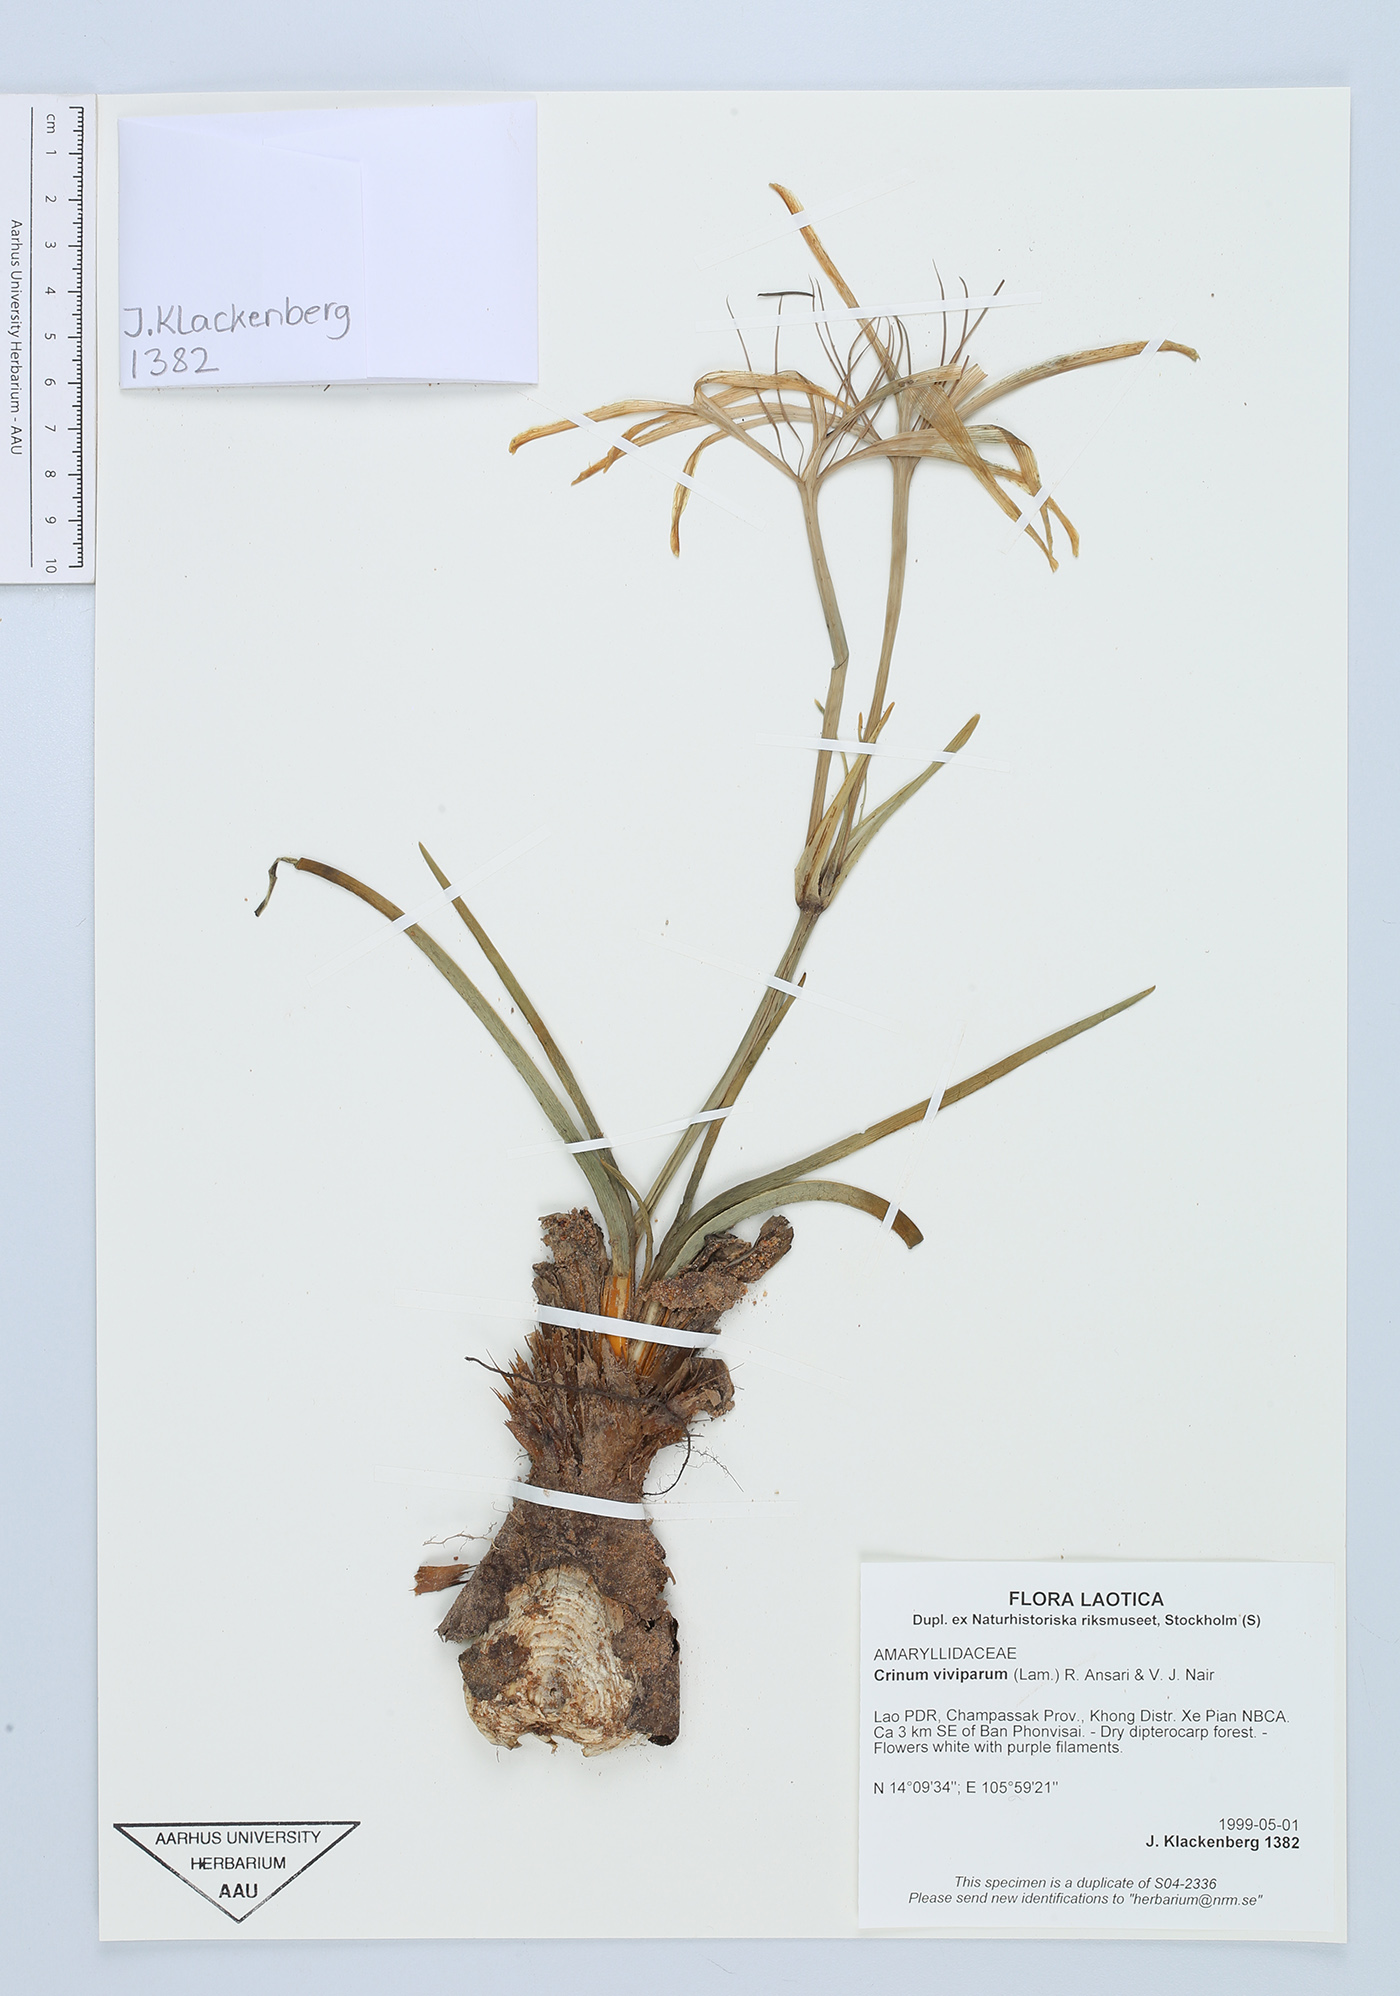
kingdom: Plantae
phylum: Tracheophyta
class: Liliopsida
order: Asparagales
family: Amaryllidaceae
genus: Crinum
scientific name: Crinum bulbispermum
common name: Hardy swamplily
